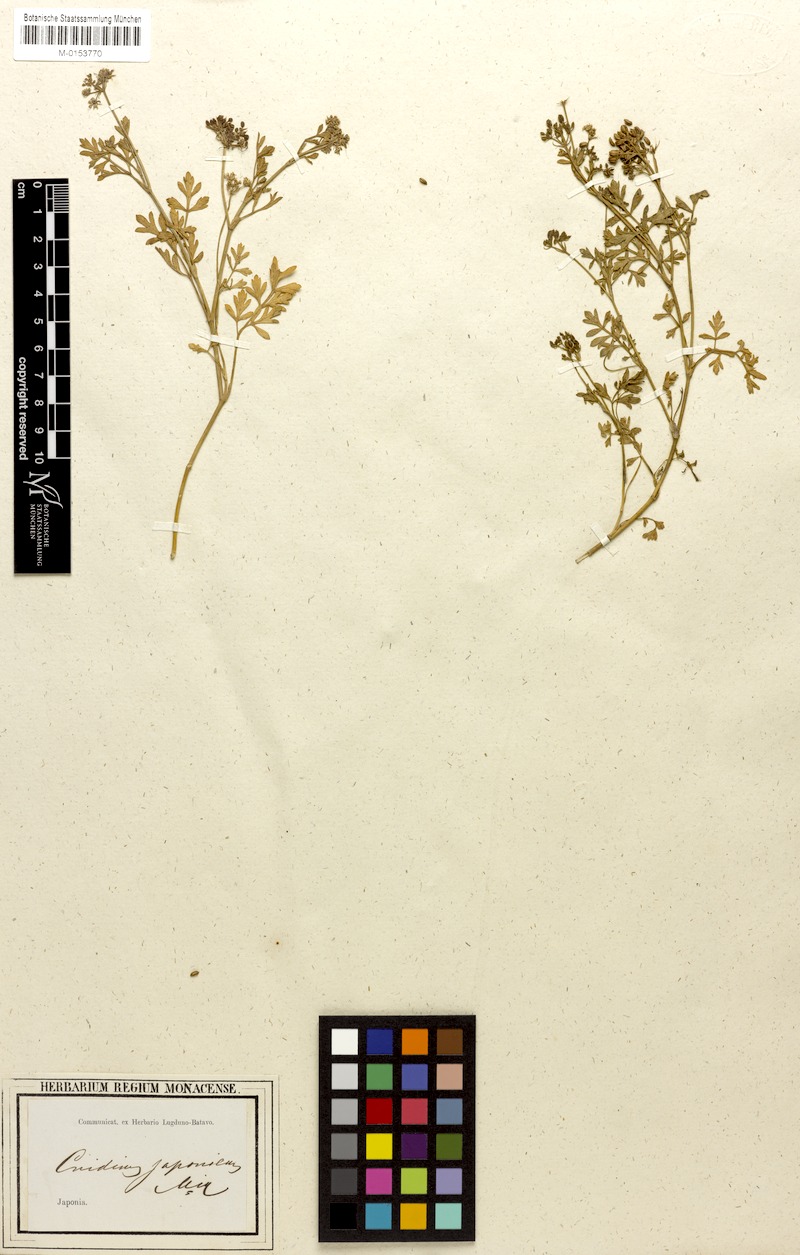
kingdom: Plantae
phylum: Tracheophyta
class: Magnoliopsida
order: Apiales
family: Apiaceae
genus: Cnidium
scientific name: Cnidium japonicum
